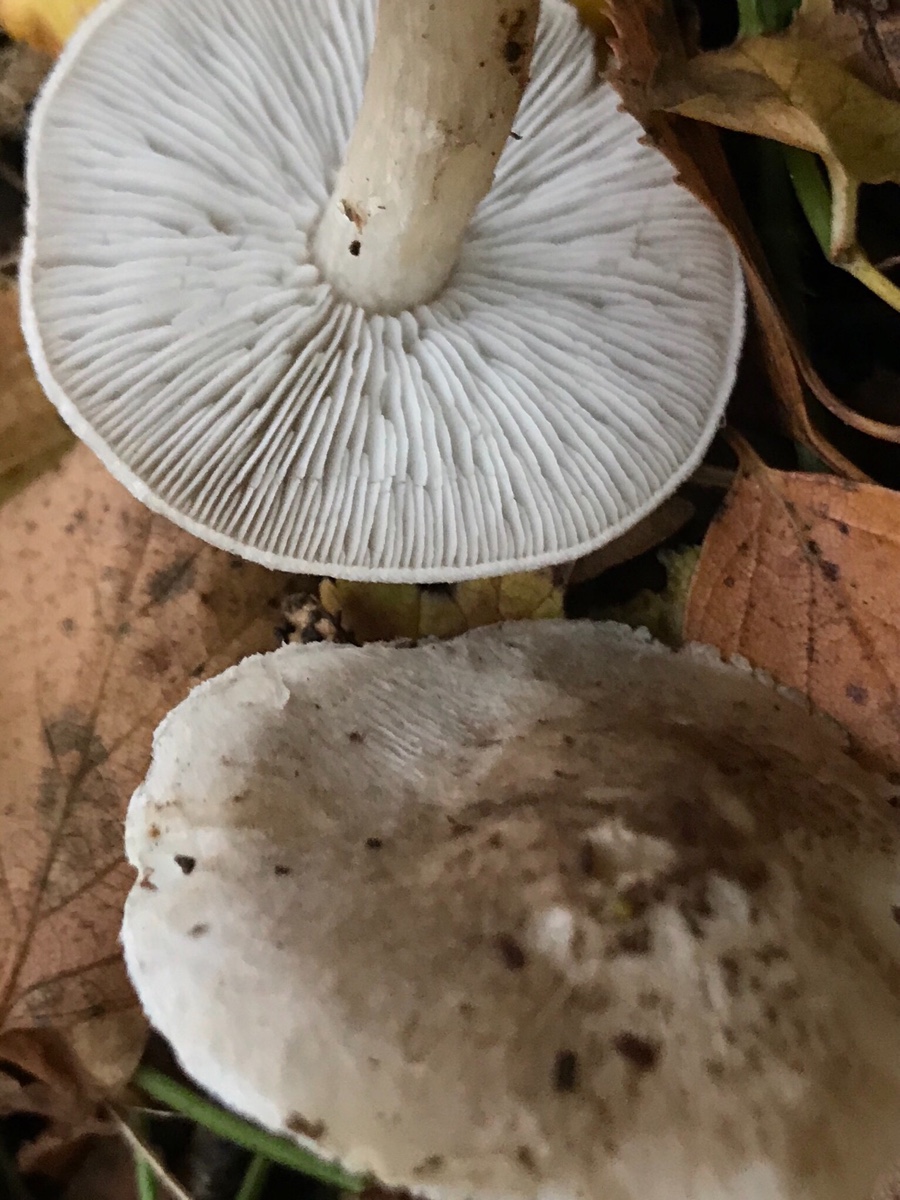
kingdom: Fungi
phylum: Basidiomycota
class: Agaricomycetes
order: Agaricales
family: Tricholomataceae
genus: Tricholoma
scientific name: Tricholoma scalpturatum
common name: gulplettet ridderhat
